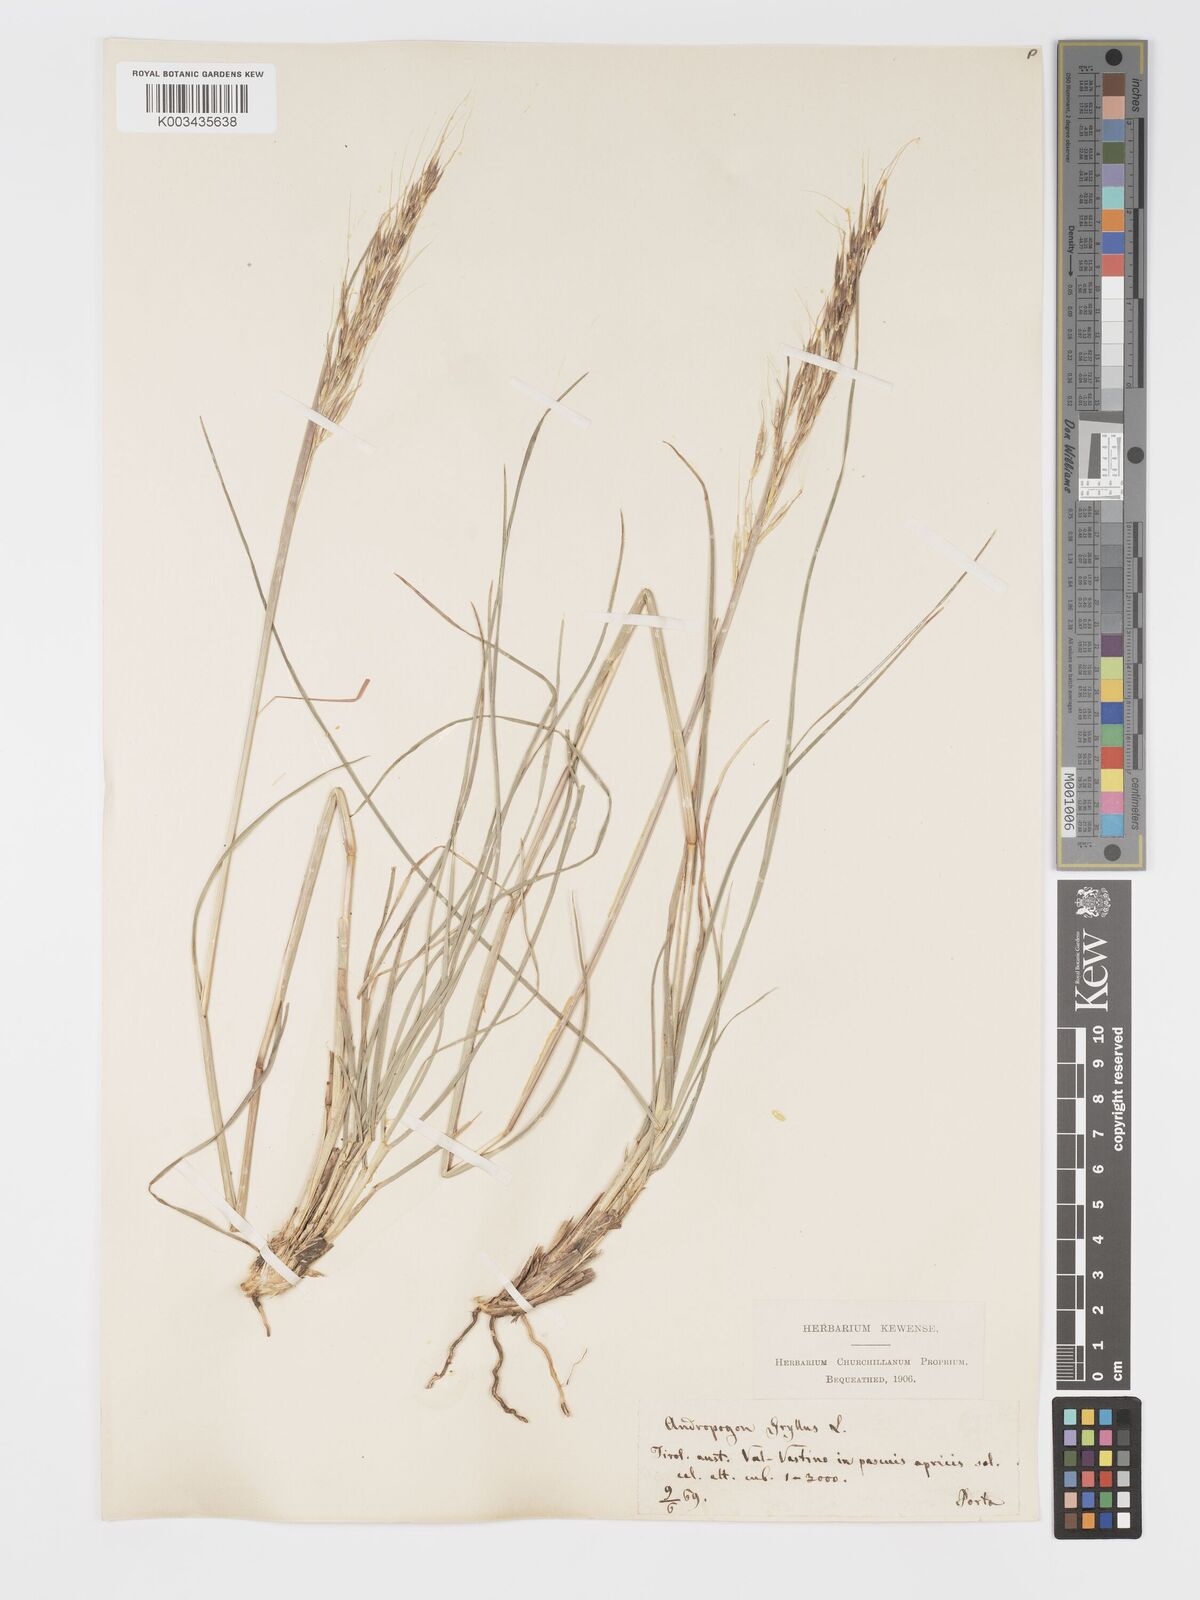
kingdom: Plantae
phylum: Tracheophyta
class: Liliopsida
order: Poales
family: Poaceae
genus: Chrysopogon
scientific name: Chrysopogon gryllus
